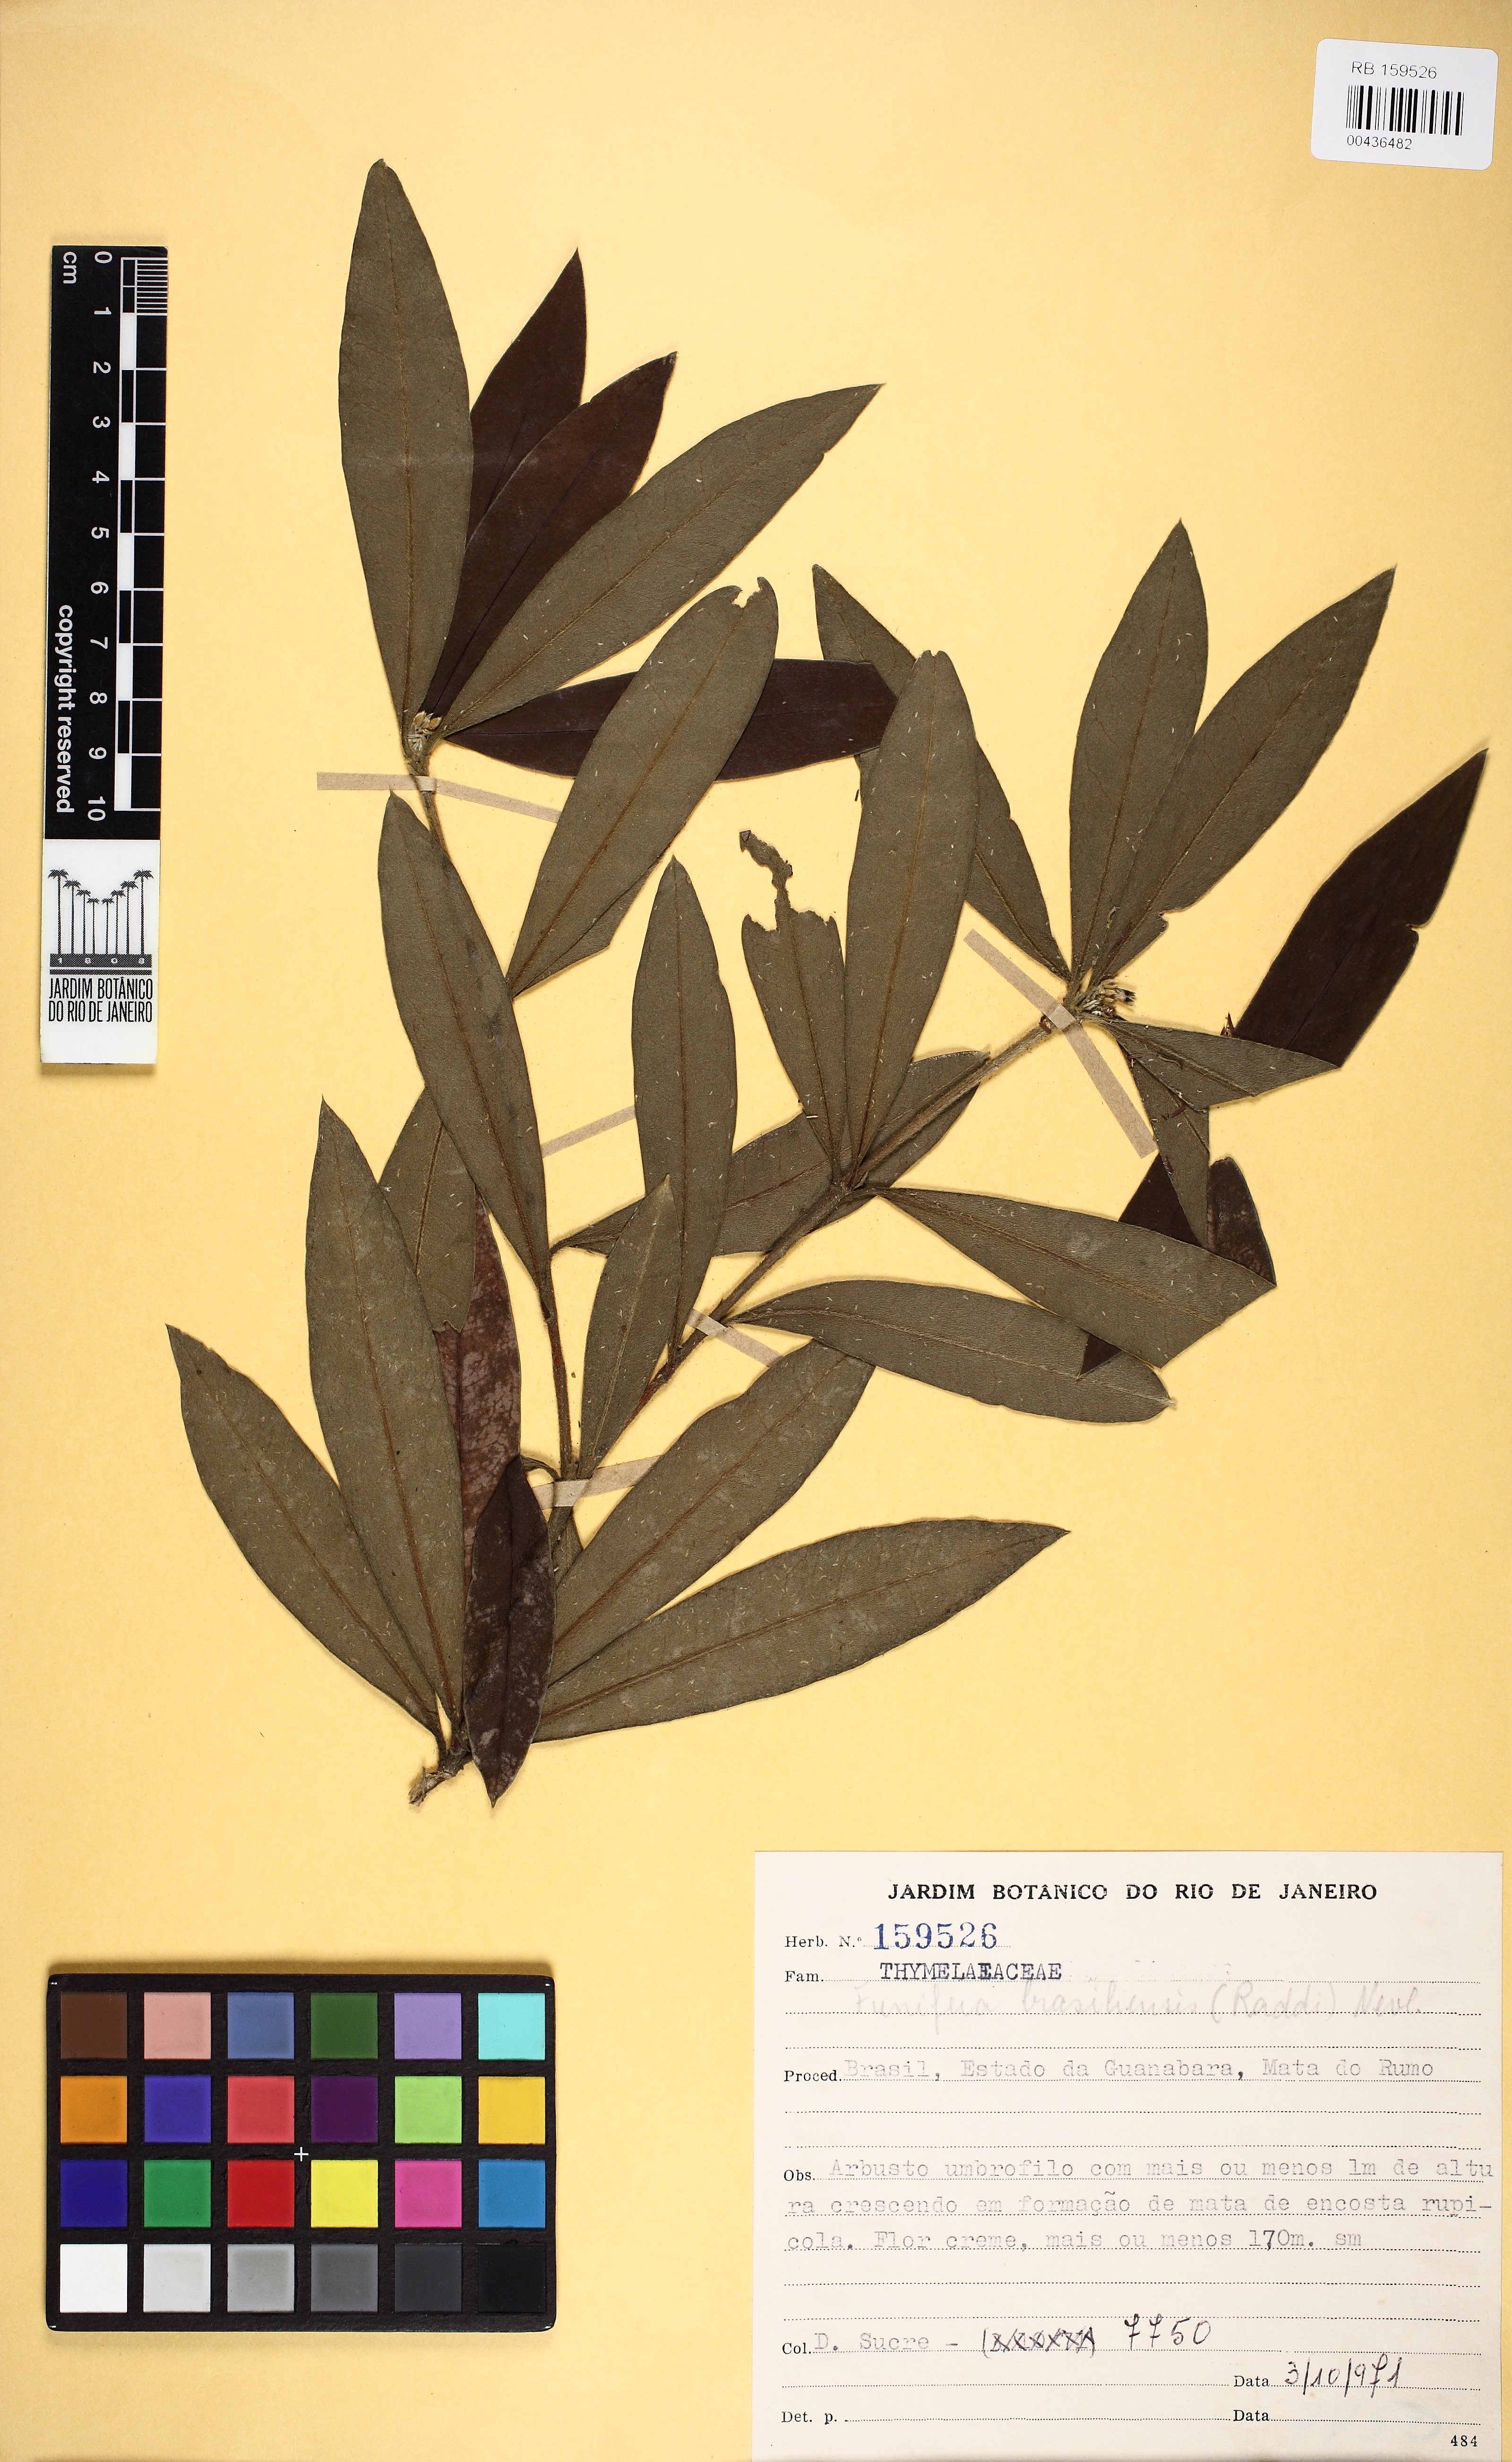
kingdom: Plantae
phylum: Tracheophyta
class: Magnoliopsida
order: Malvales
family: Thymelaeaceae
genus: Funifera
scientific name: Funifera brasiliensis
